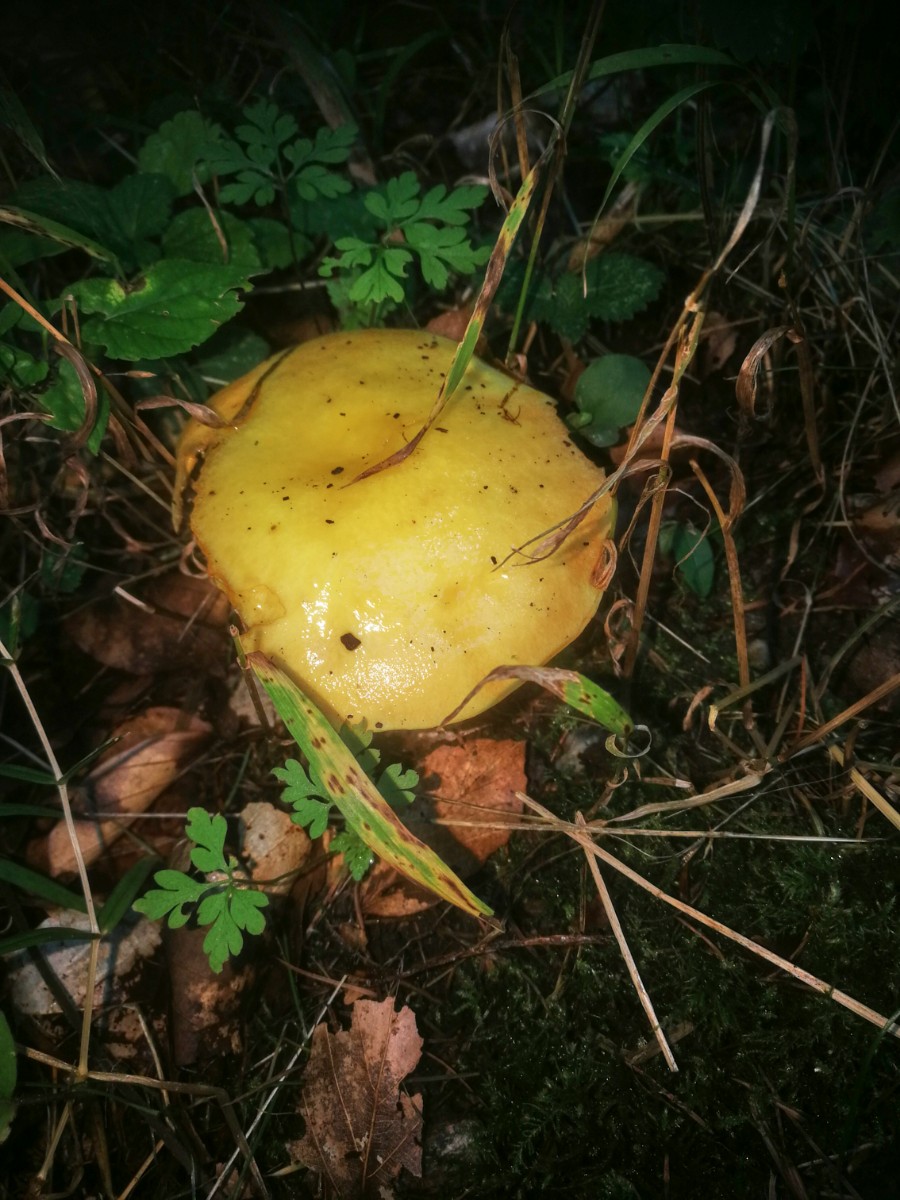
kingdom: Fungi
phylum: Basidiomycota
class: Agaricomycetes
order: Boletales
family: Suillaceae
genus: Suillus
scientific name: Suillus grevillei
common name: lærke-slimrørhat
